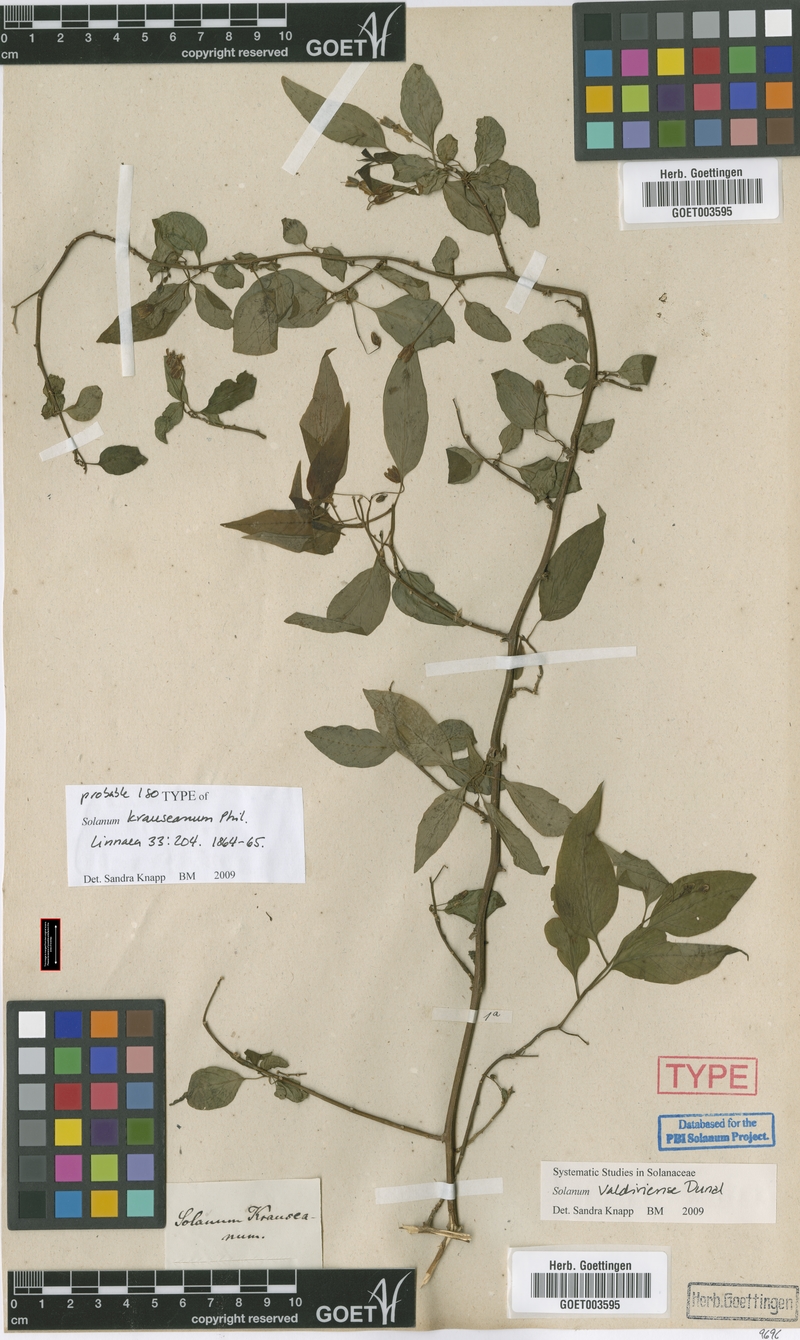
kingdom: Plantae
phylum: Tracheophyta
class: Magnoliopsida
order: Solanales
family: Solanaceae
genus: Solanum
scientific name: Solanum valdiviense
